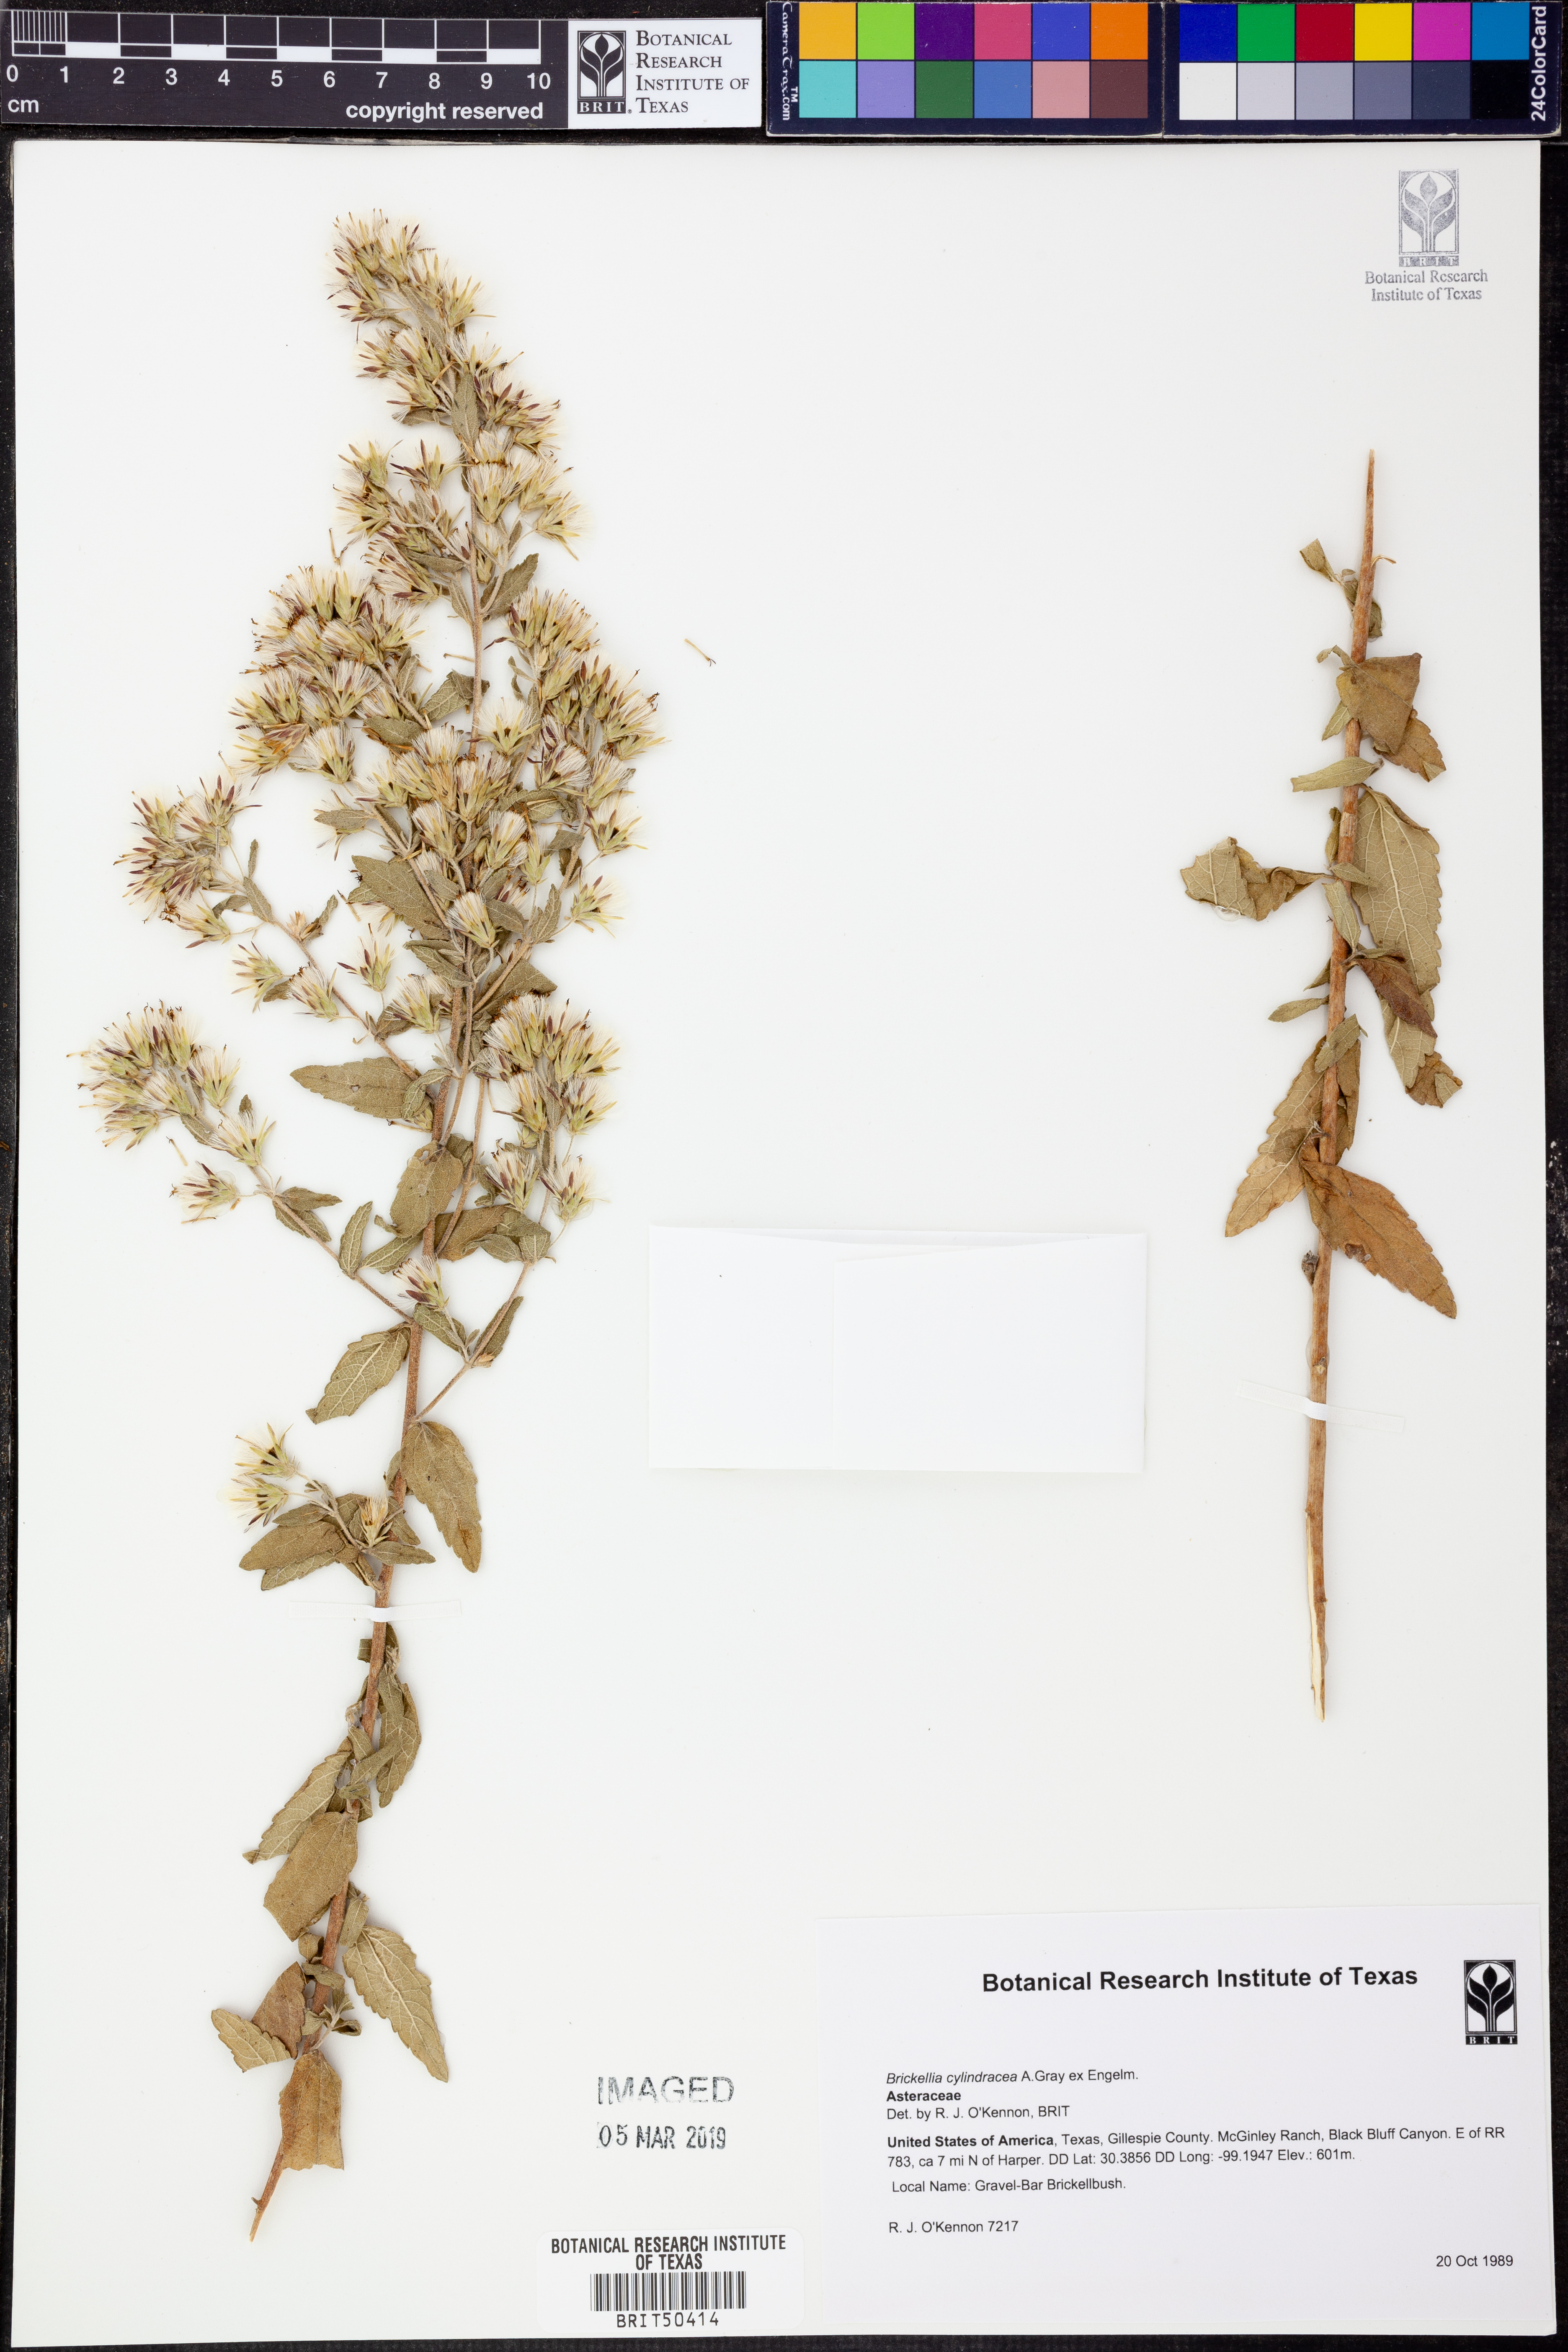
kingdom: Plantae
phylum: Tracheophyta
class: Magnoliopsida
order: Asterales
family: Asteraceae
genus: Brickellia
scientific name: Brickellia cylindracea
